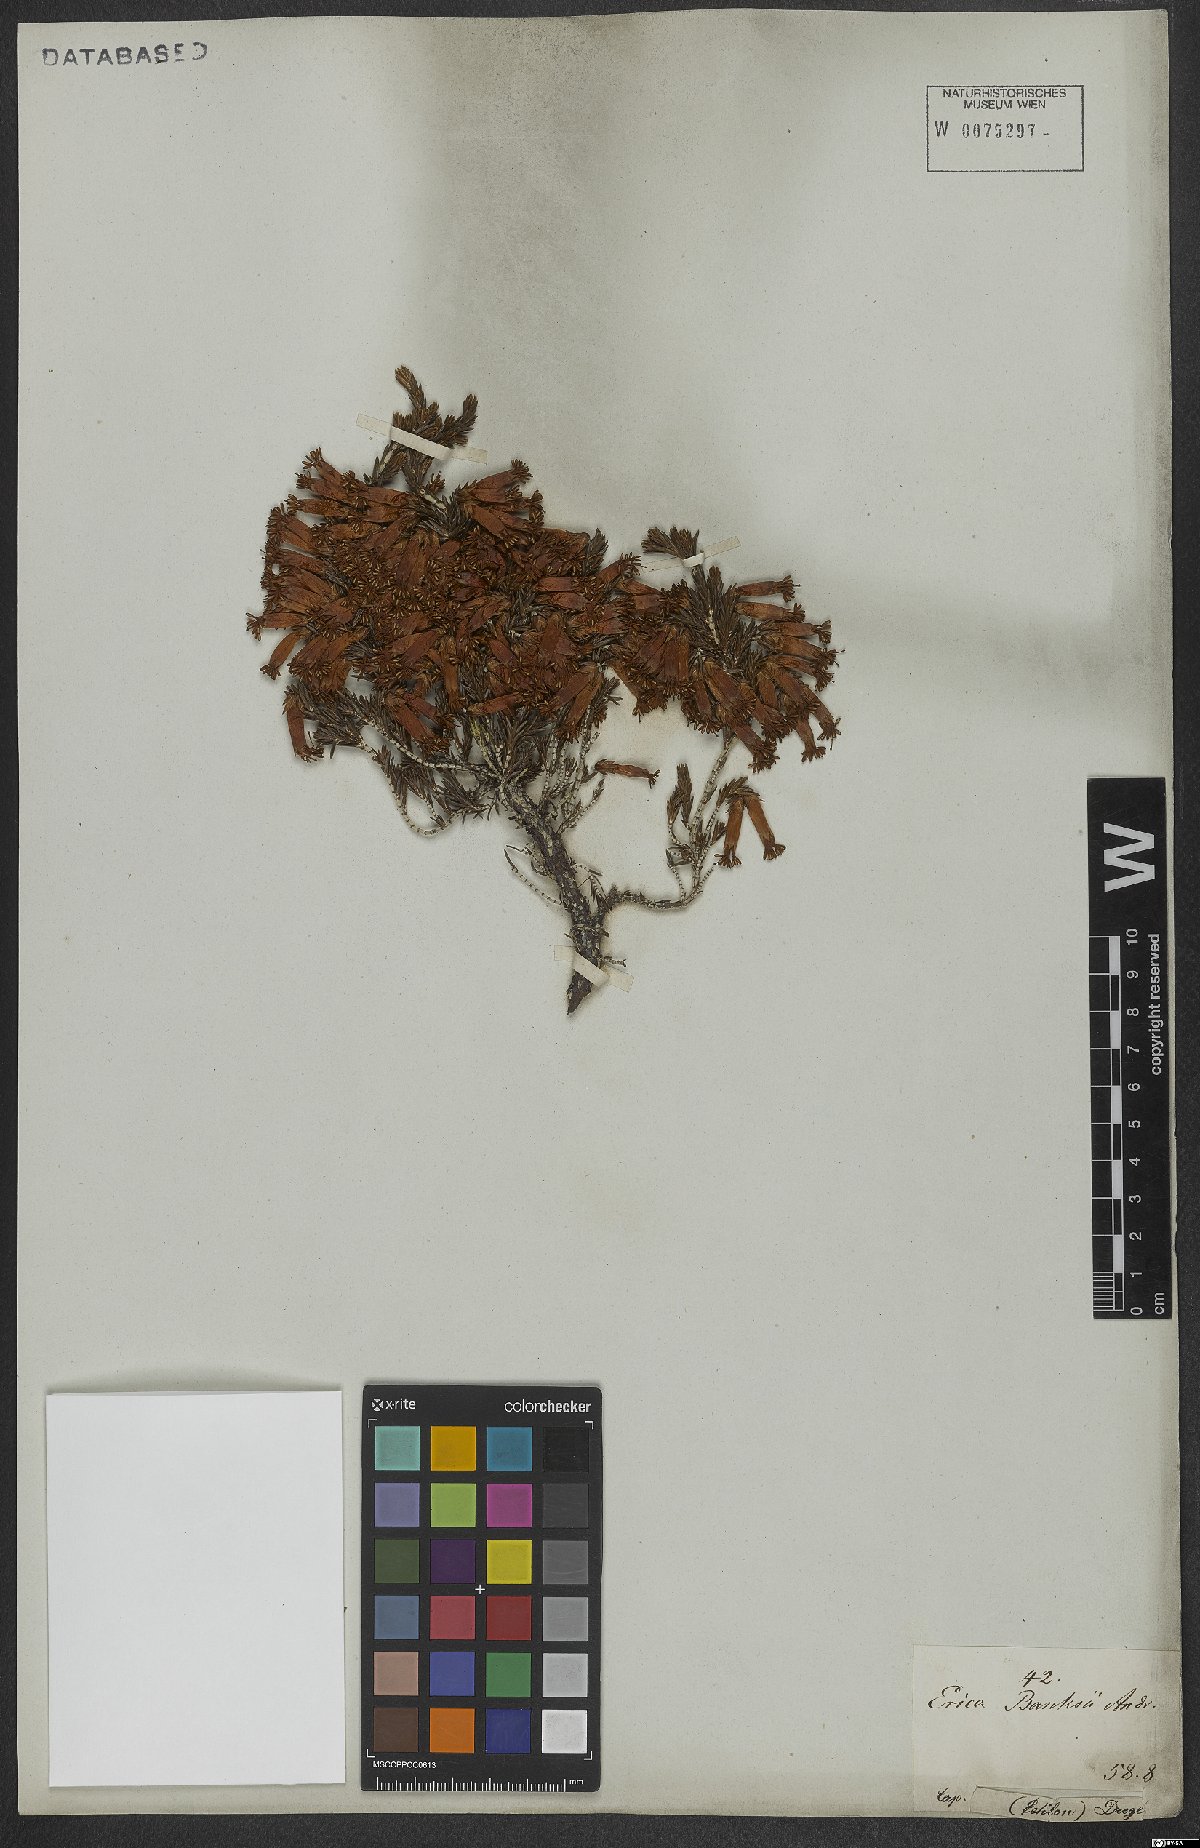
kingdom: Plantae
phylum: Tracheophyta
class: Magnoliopsida
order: Ericales
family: Ericaceae
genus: Erica
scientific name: Erica banksia
